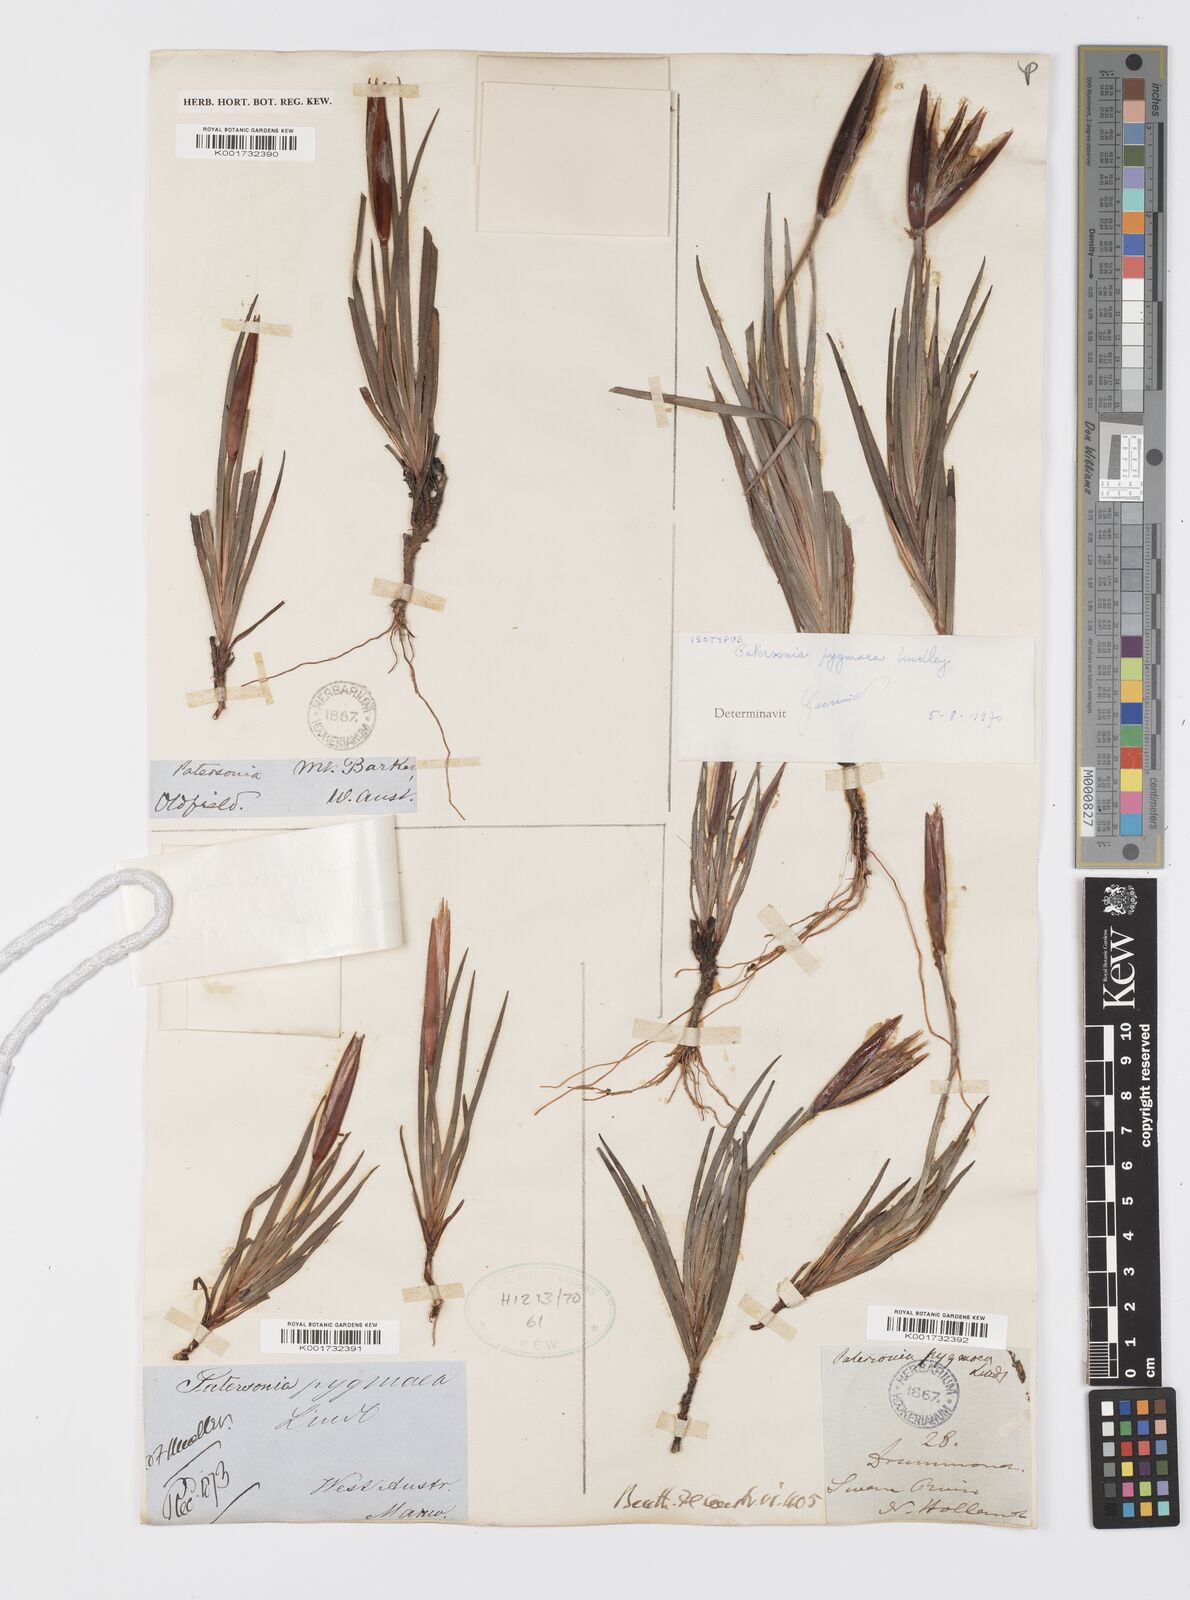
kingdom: Plantae
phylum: Tracheophyta
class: Liliopsida
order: Asparagales
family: Iridaceae
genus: Patersonia
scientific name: Patersonia pygmaea
